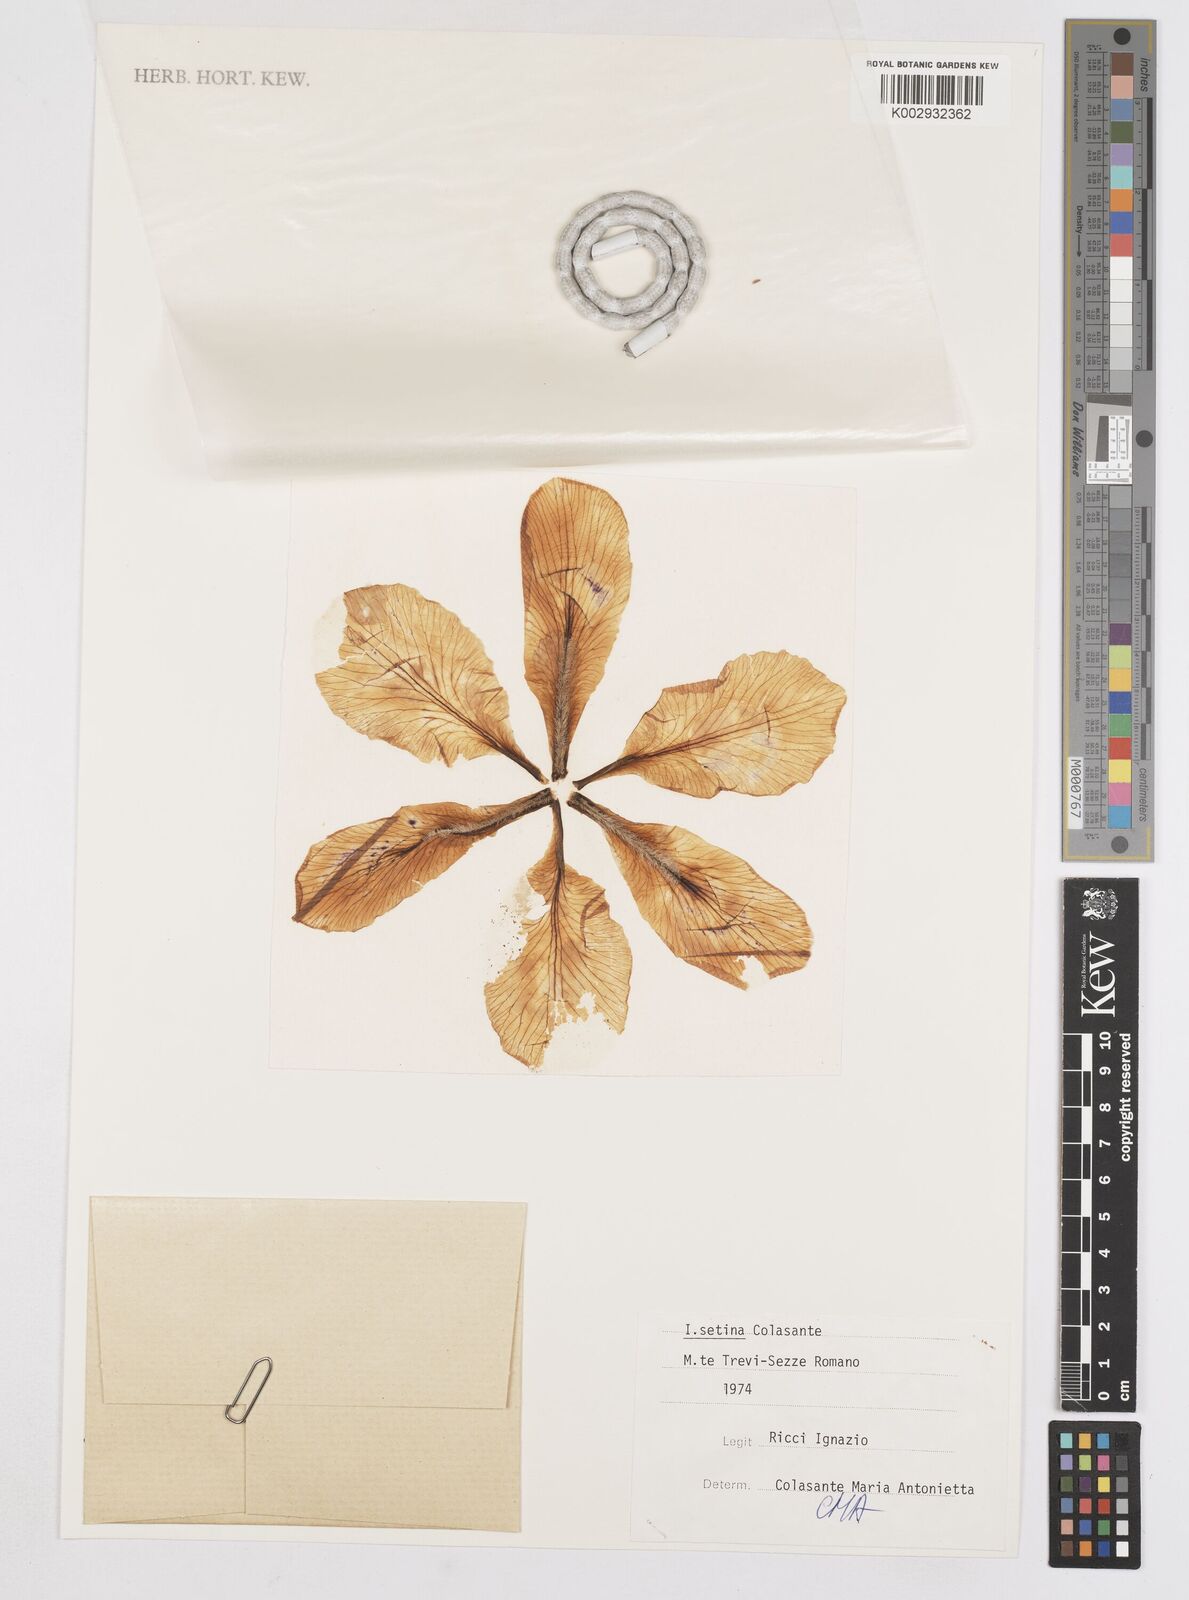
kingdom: Plantae
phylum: Tracheophyta
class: Liliopsida
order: Asparagales
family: Iridaceae
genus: Iris
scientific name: Iris setina
